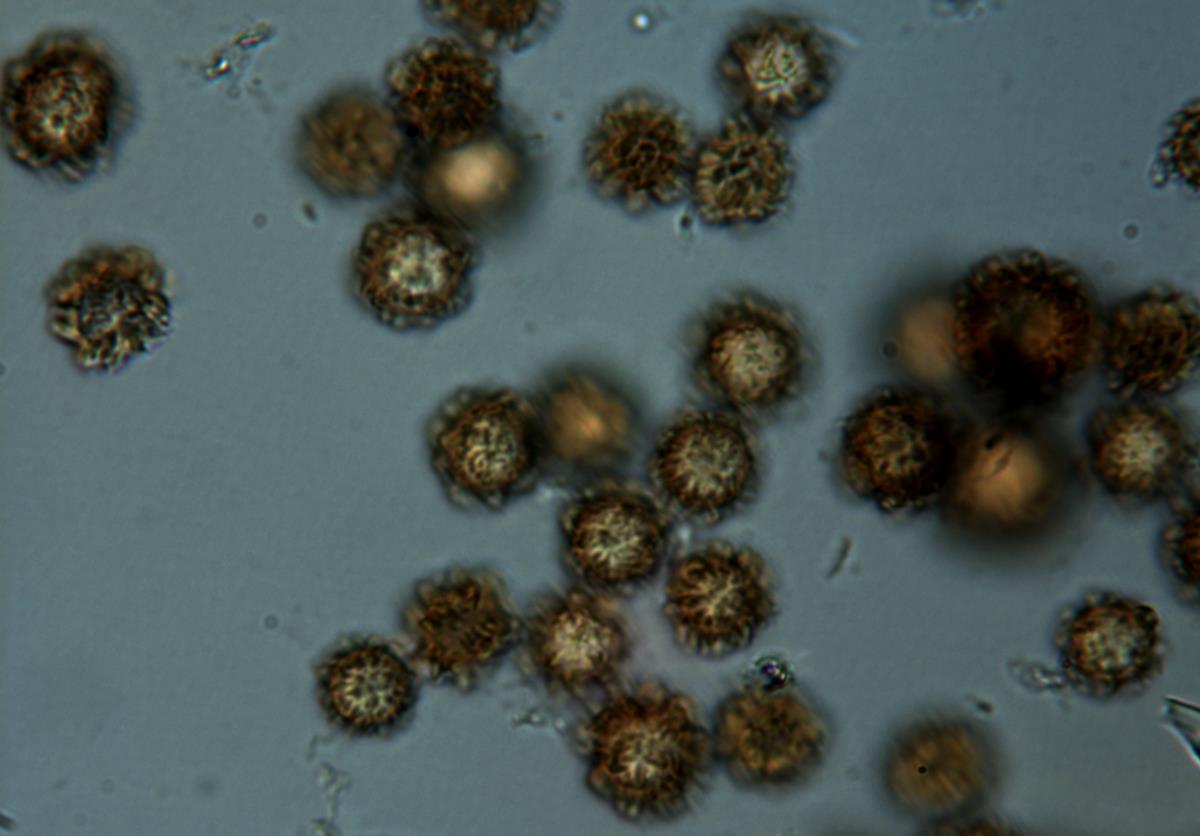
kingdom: Fungi
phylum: Basidiomycota
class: Agaricomycetes
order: Boletales
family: Sclerodermataceae
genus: Pisolithus
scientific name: Pisolithus marmoratus
